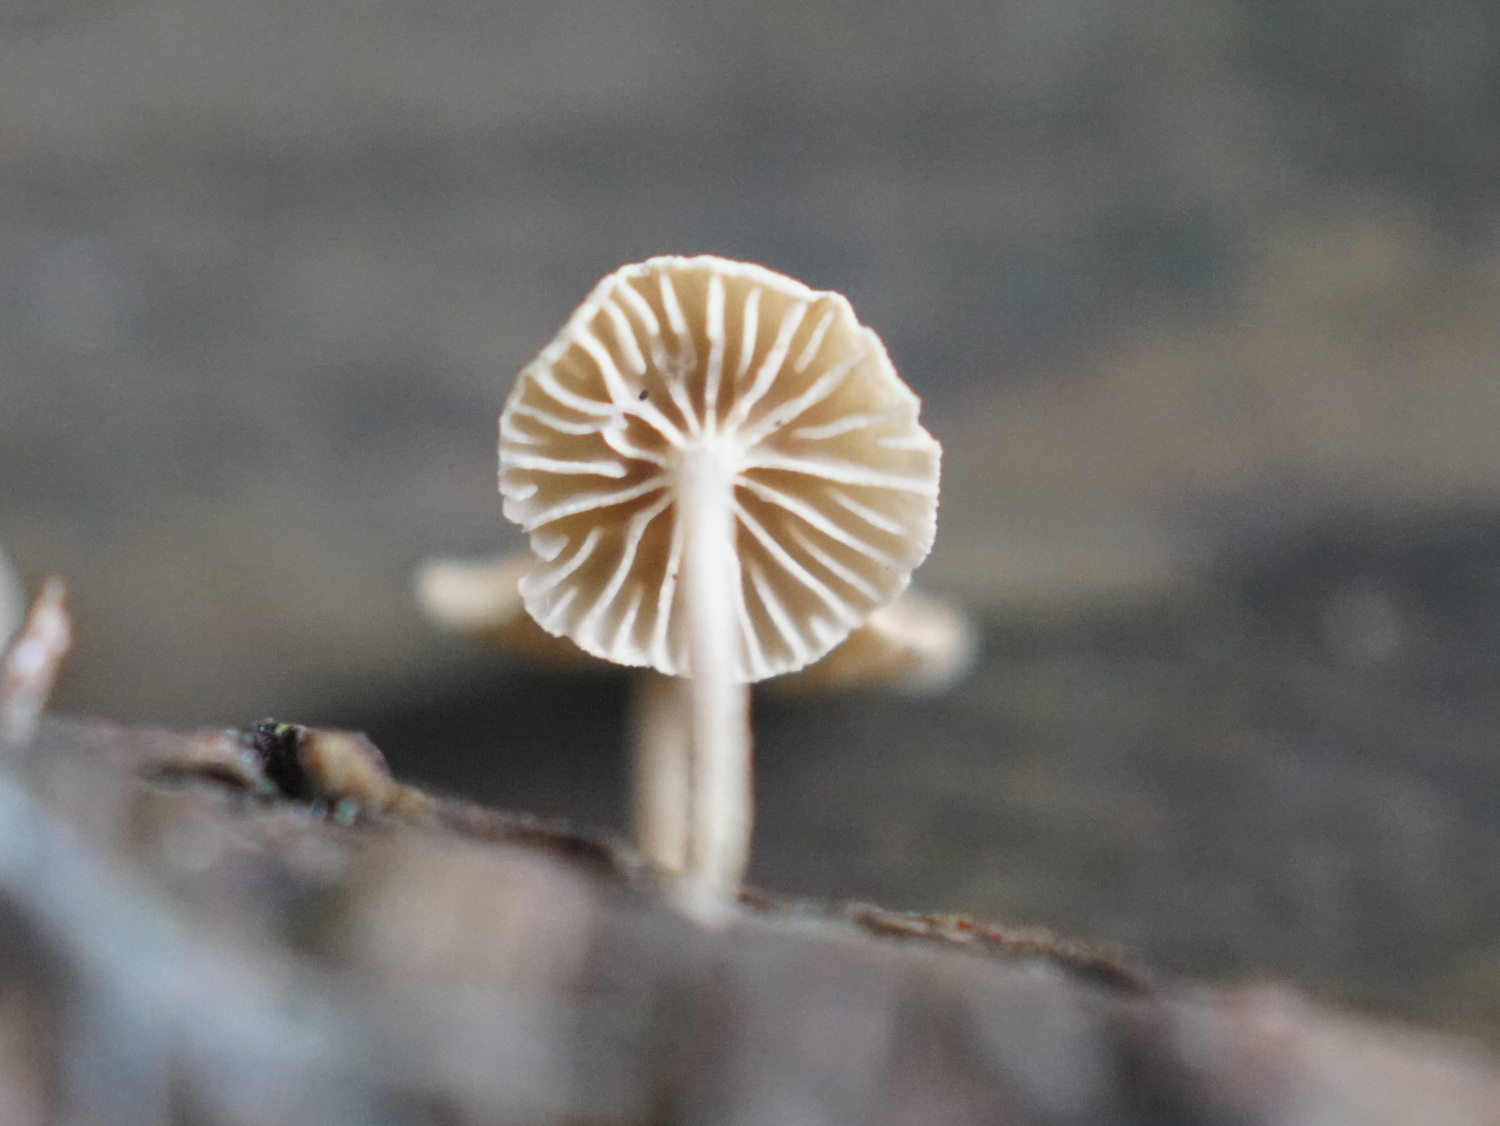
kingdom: Fungi
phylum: Basidiomycota
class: Agaricomycetes
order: Agaricales
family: Omphalotaceae
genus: Collybiopsis
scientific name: Collybiopsis ramealis
